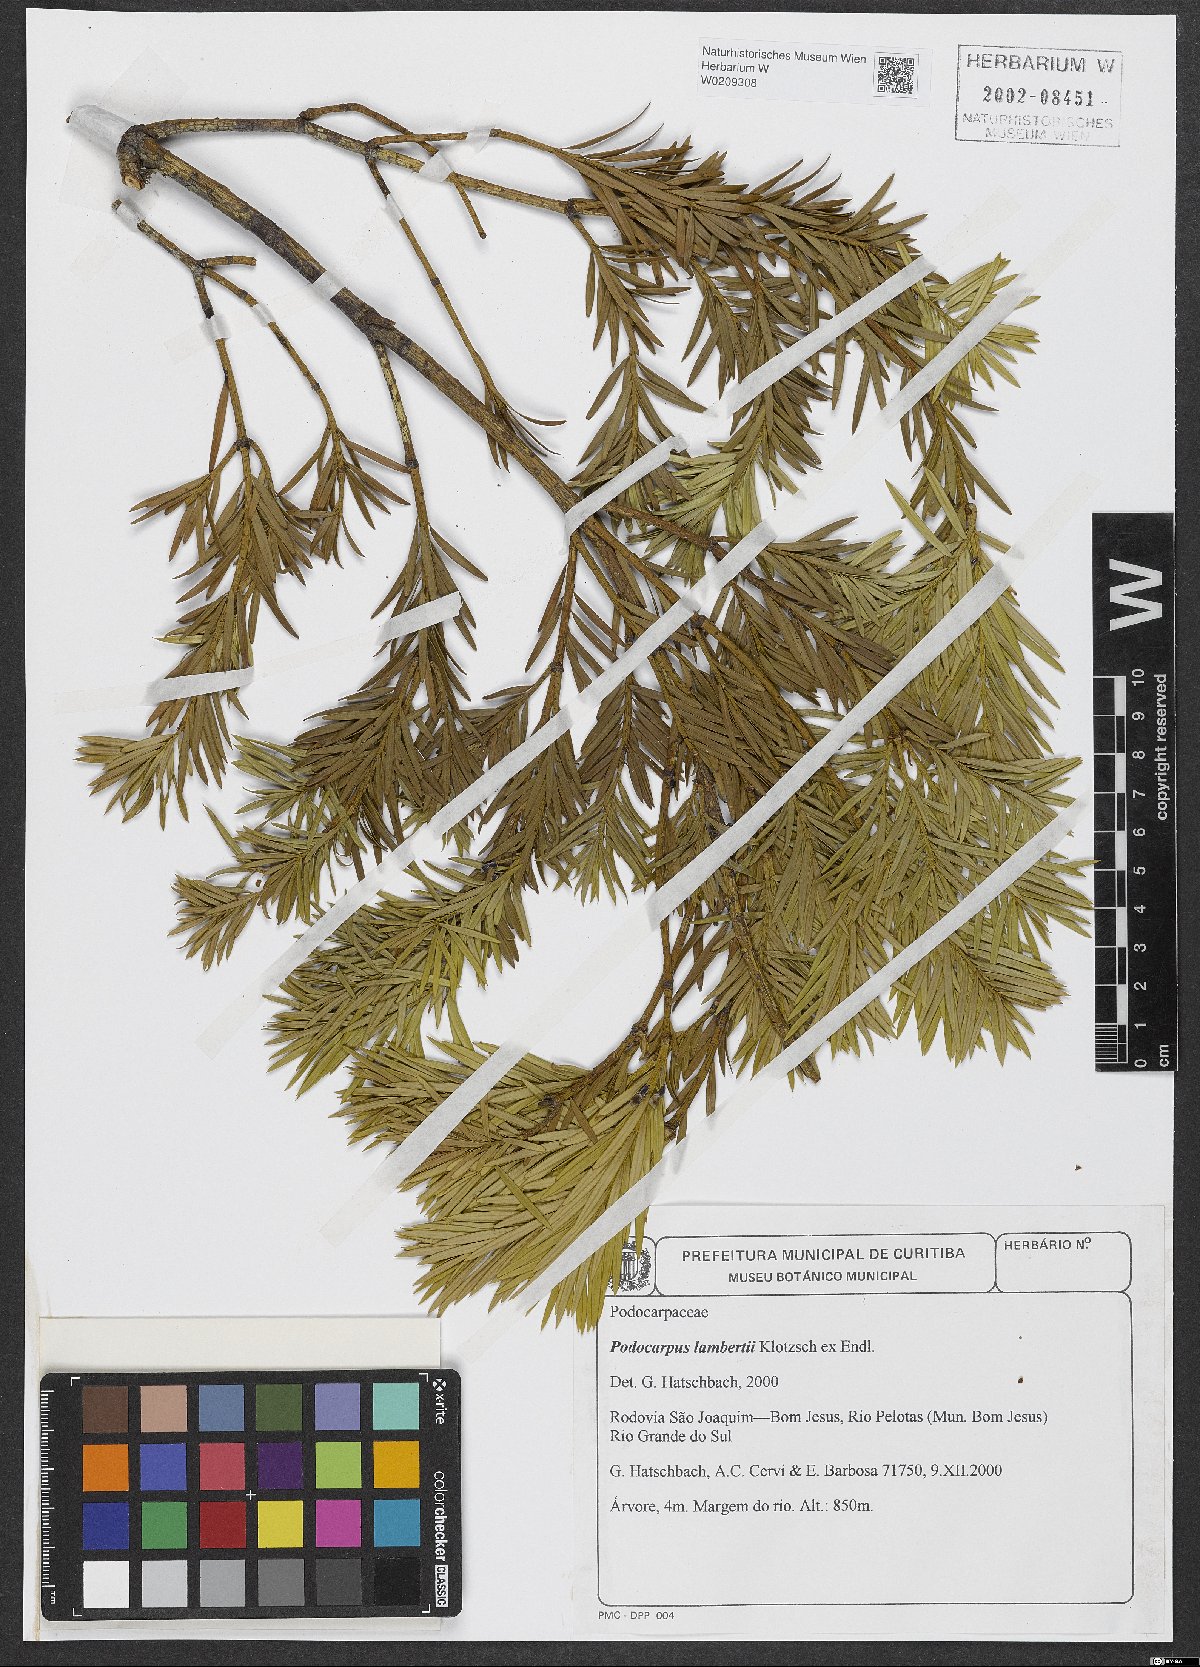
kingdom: Plantae
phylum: Tracheophyta
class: Pinopsida
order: Pinales
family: Podocarpaceae
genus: Podocarpus
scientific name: Podocarpus lambertii
